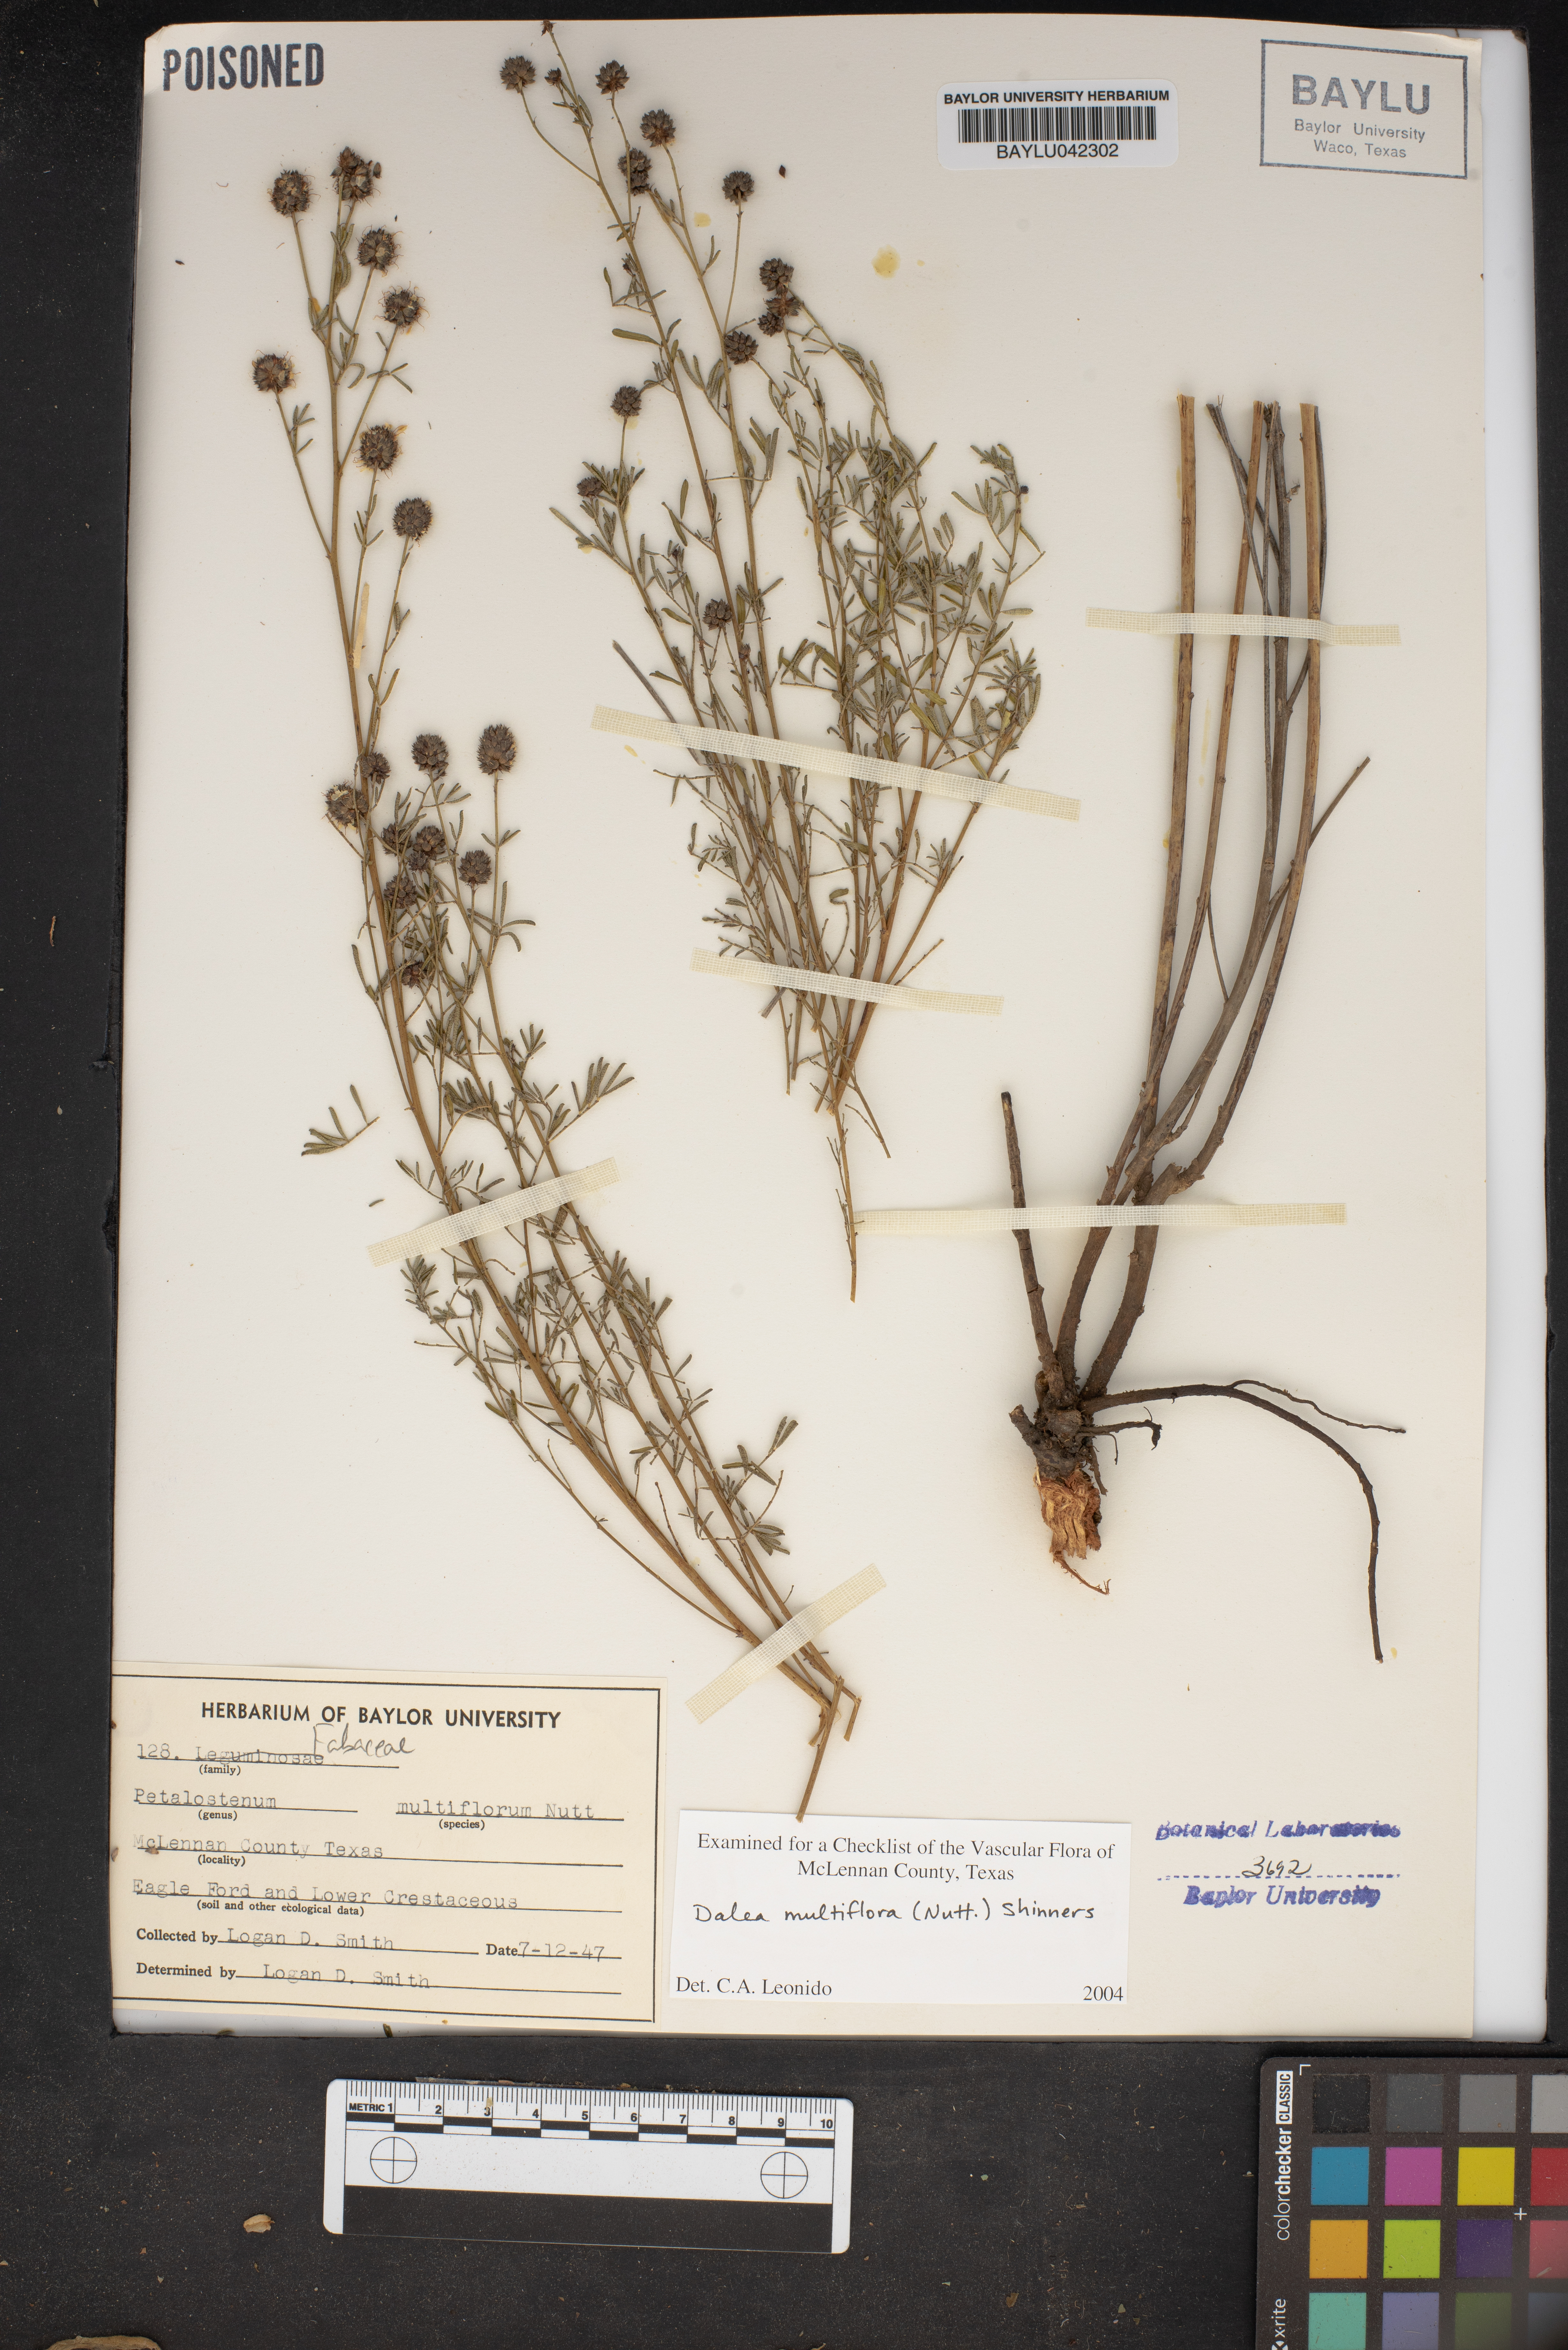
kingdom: Plantae
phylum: Tracheophyta
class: Magnoliopsida
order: Fabales
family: Fabaceae
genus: Dalea
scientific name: Dalea multiflora
